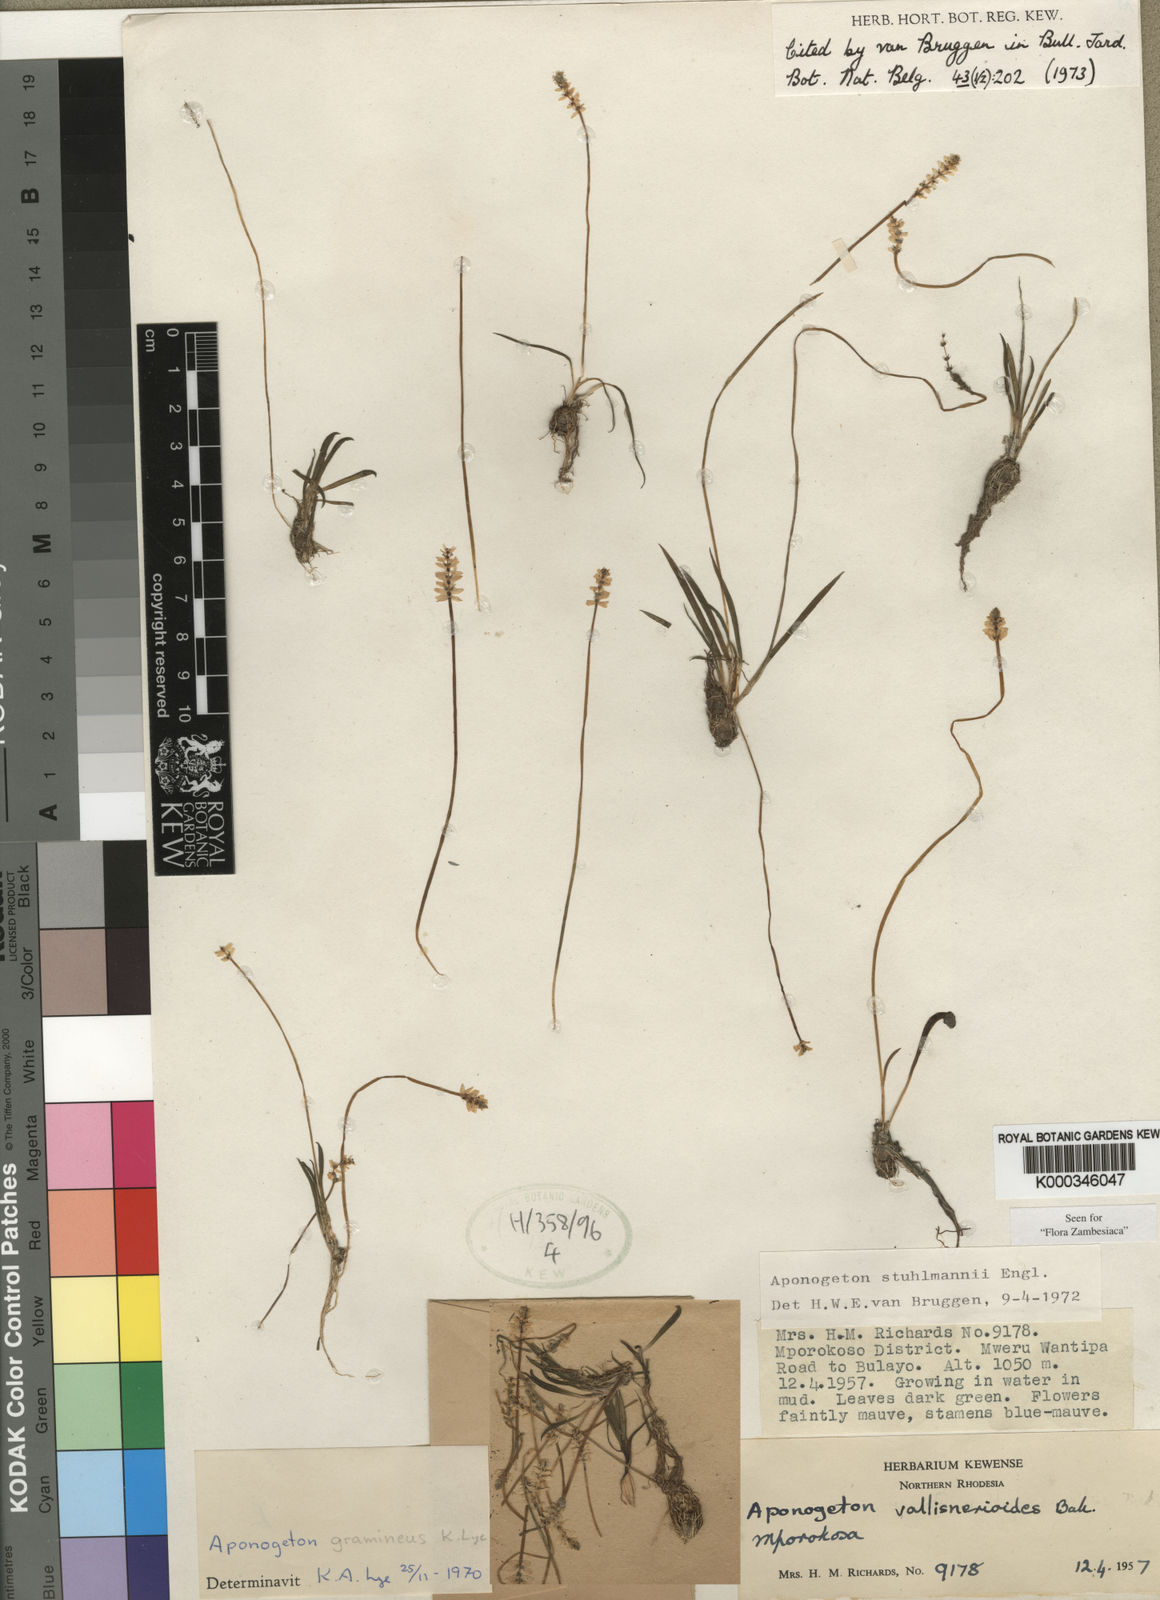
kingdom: Plantae
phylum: Tracheophyta
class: Liliopsida
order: Alismatales
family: Aponogetonaceae
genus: Aponogeton
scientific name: Aponogeton stuhlmannii
